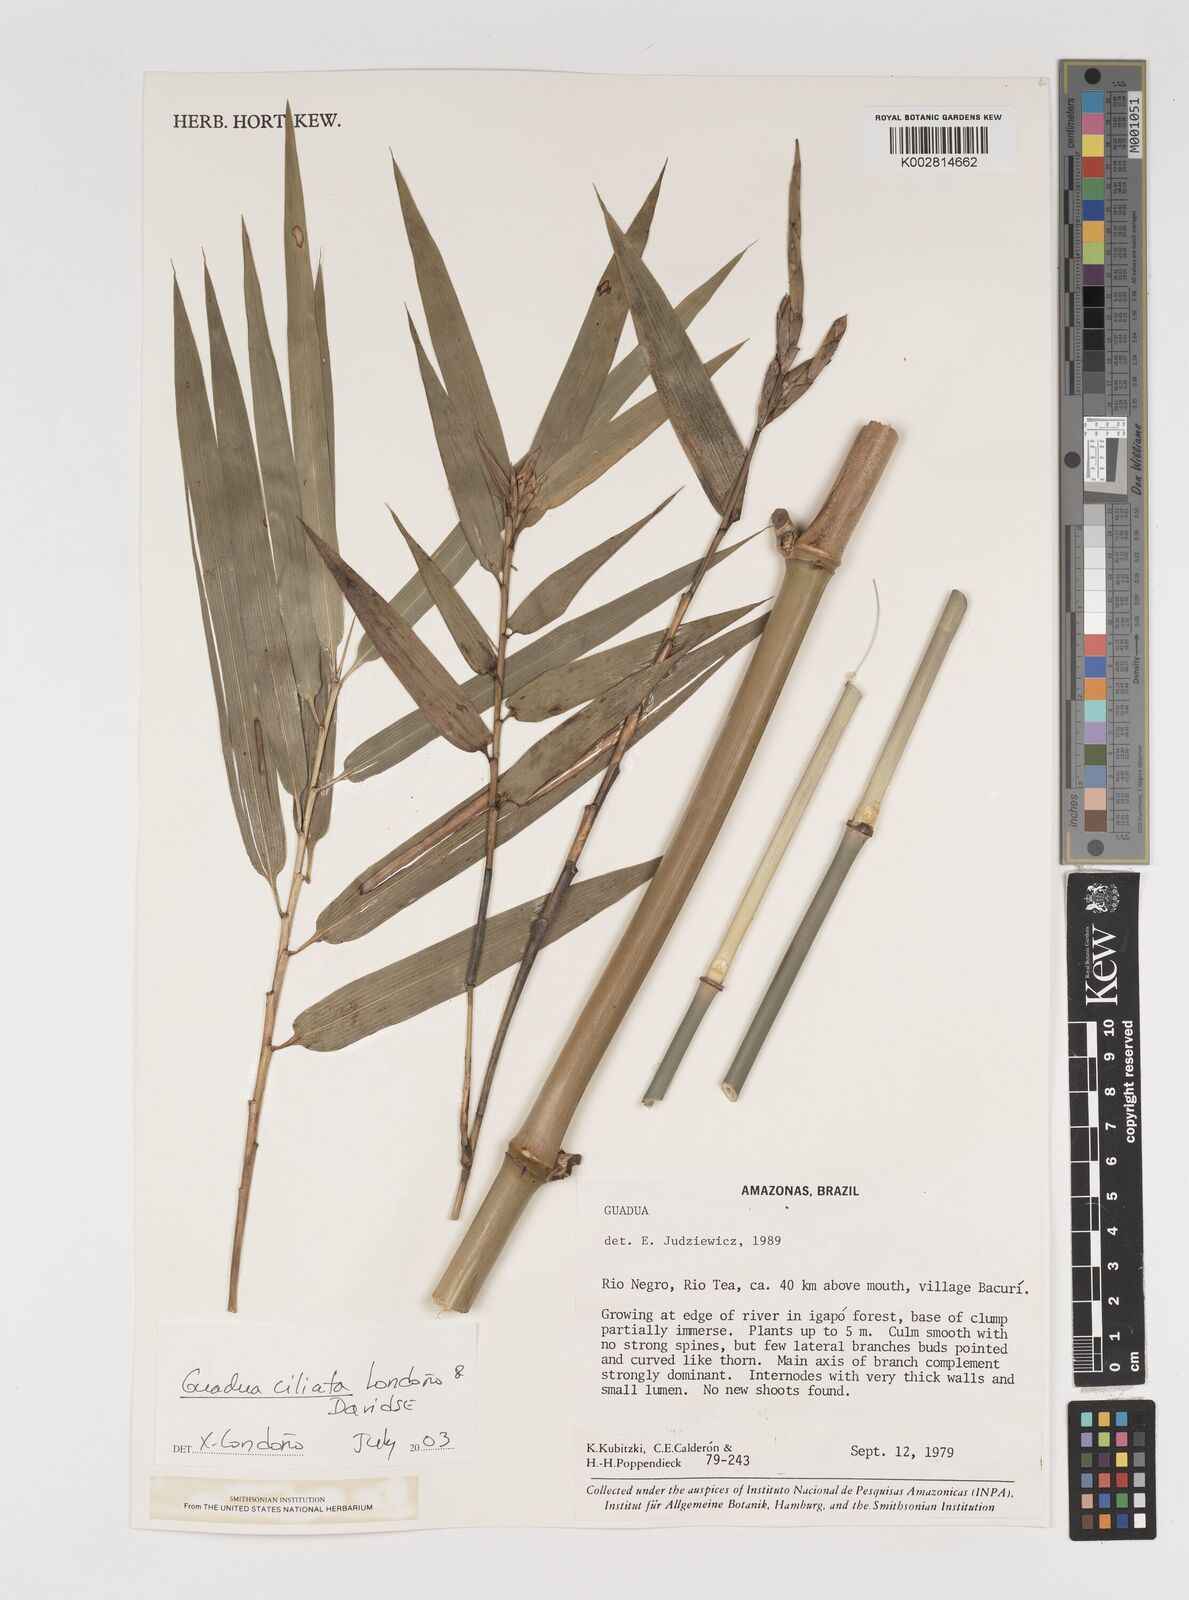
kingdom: Plantae
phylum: Tracheophyta
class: Liliopsida
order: Poales
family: Poaceae
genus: Guadua
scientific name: Guadua ciliata
